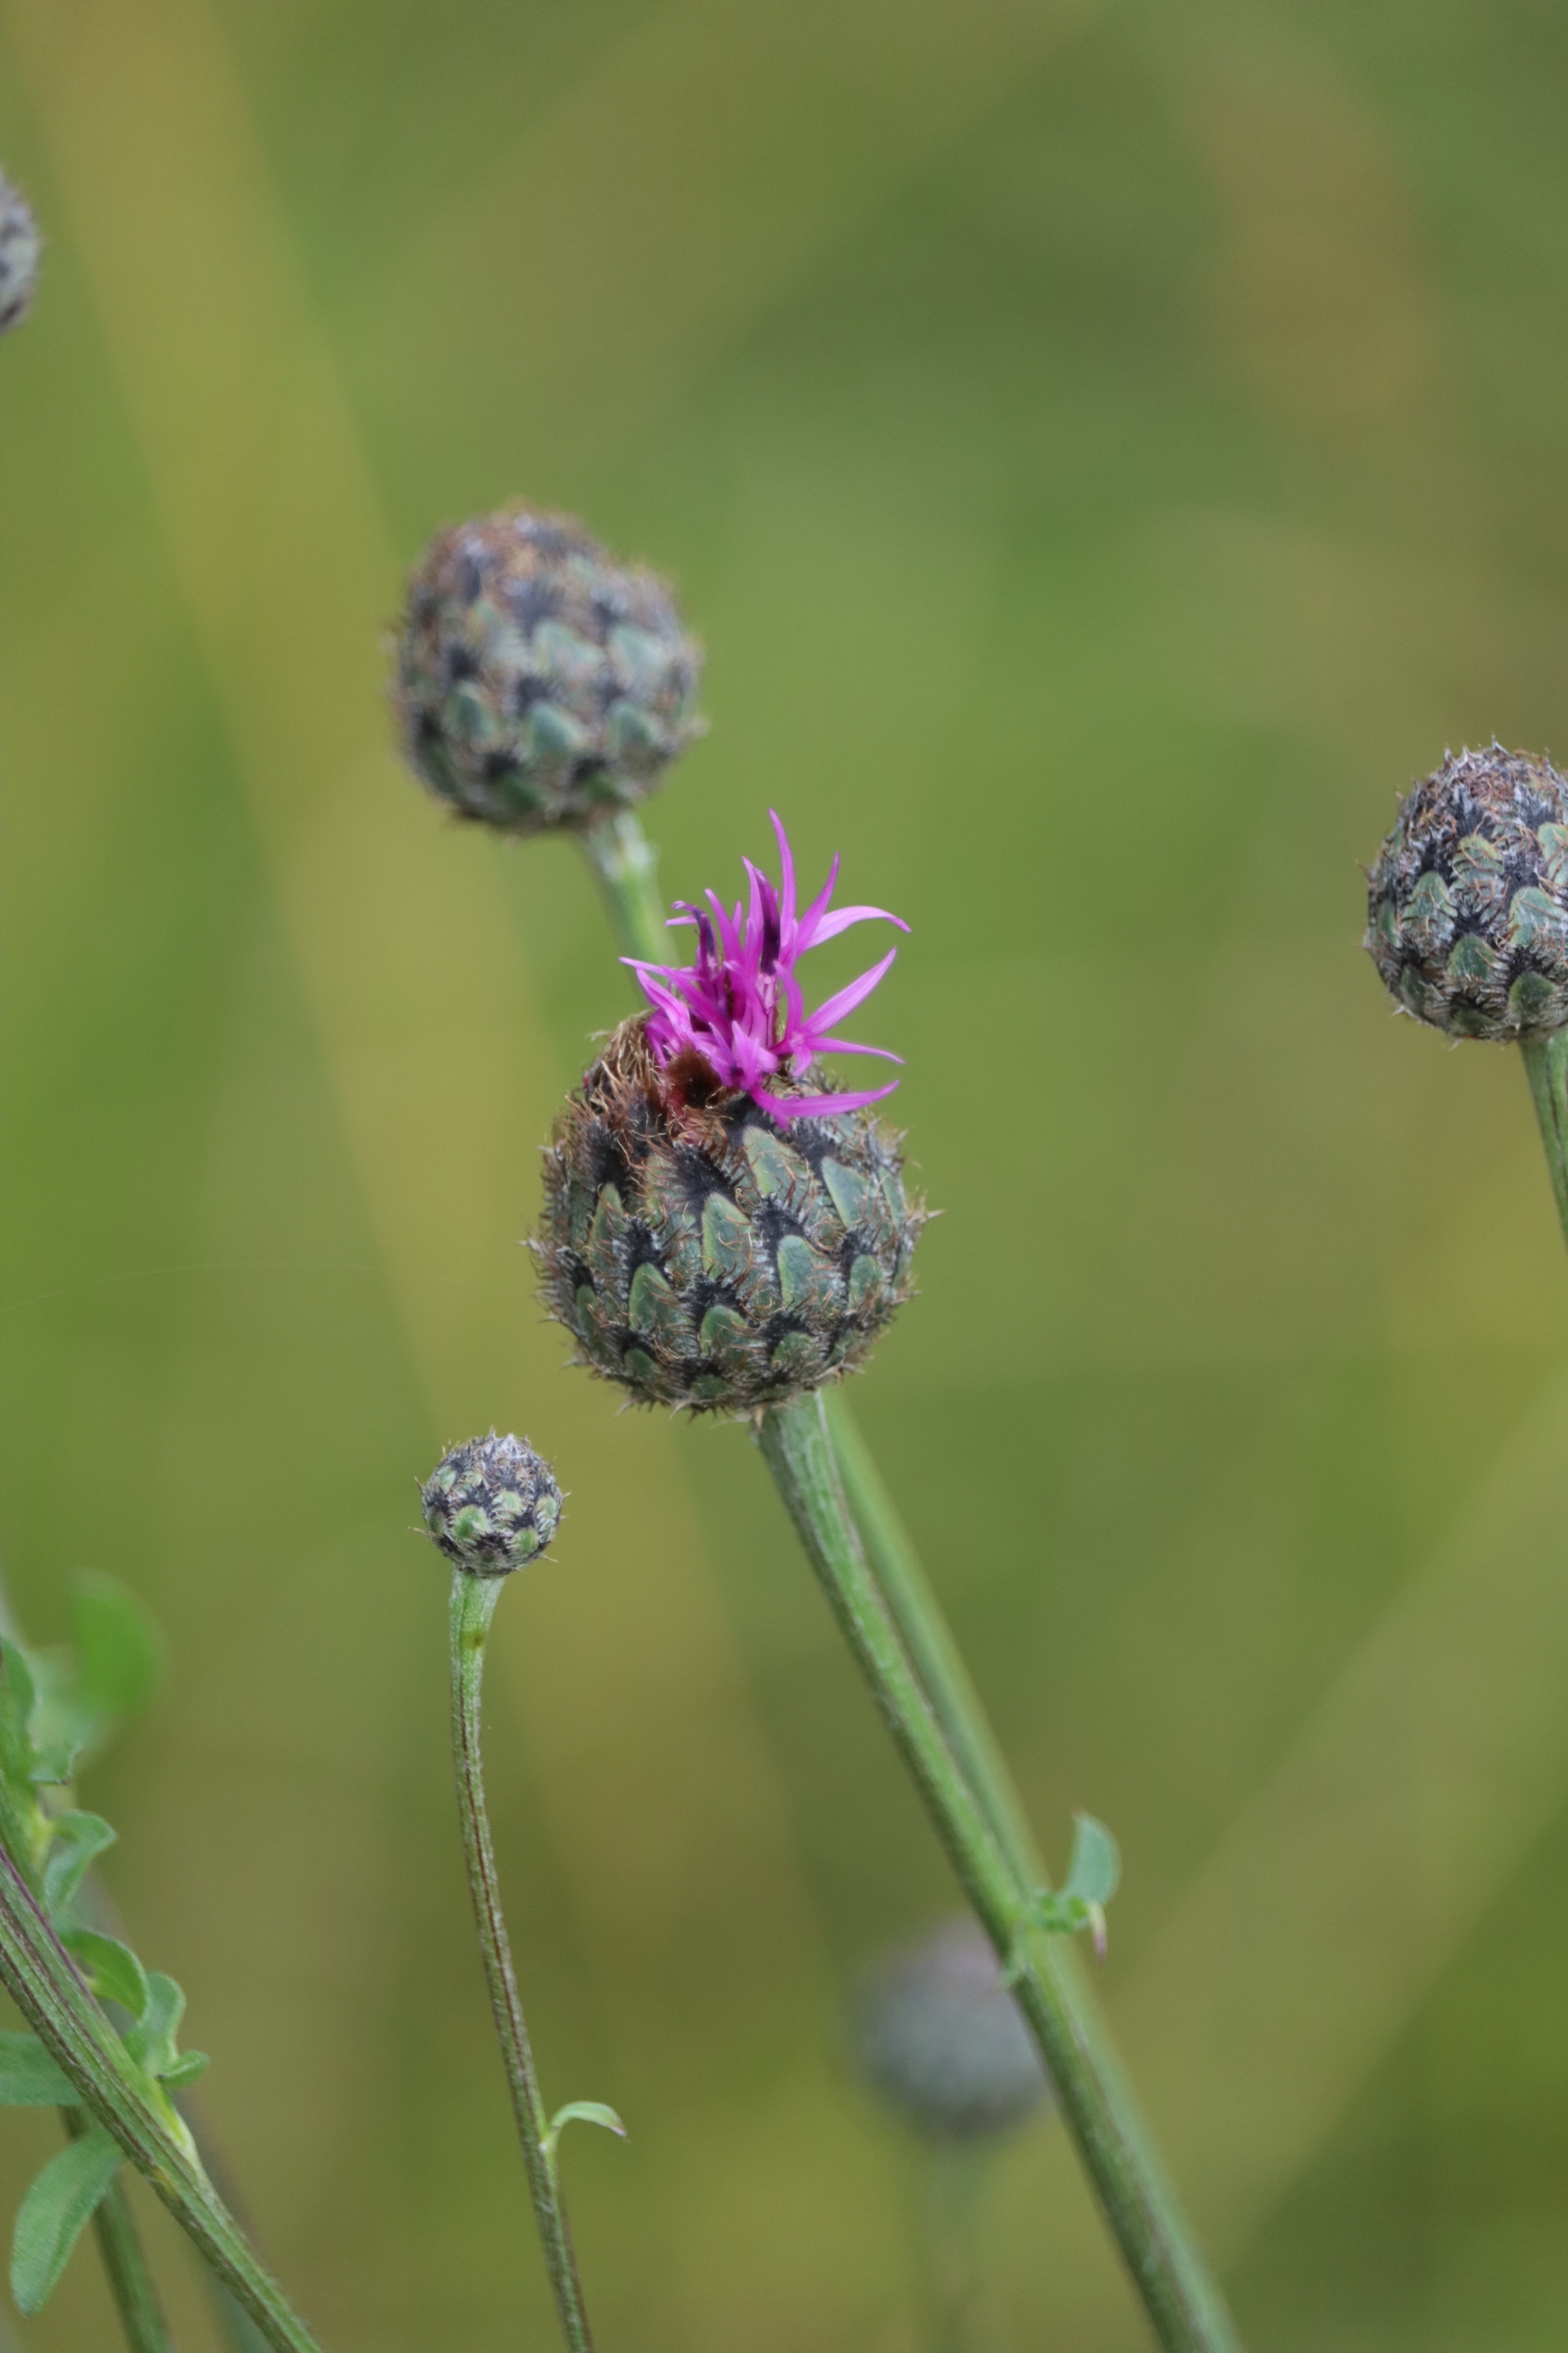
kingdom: Plantae
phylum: Tracheophyta
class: Magnoliopsida
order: Asterales
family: Asteraceae
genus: Centaurea
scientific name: Centaurea scabiosa
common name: Stor knopurt
